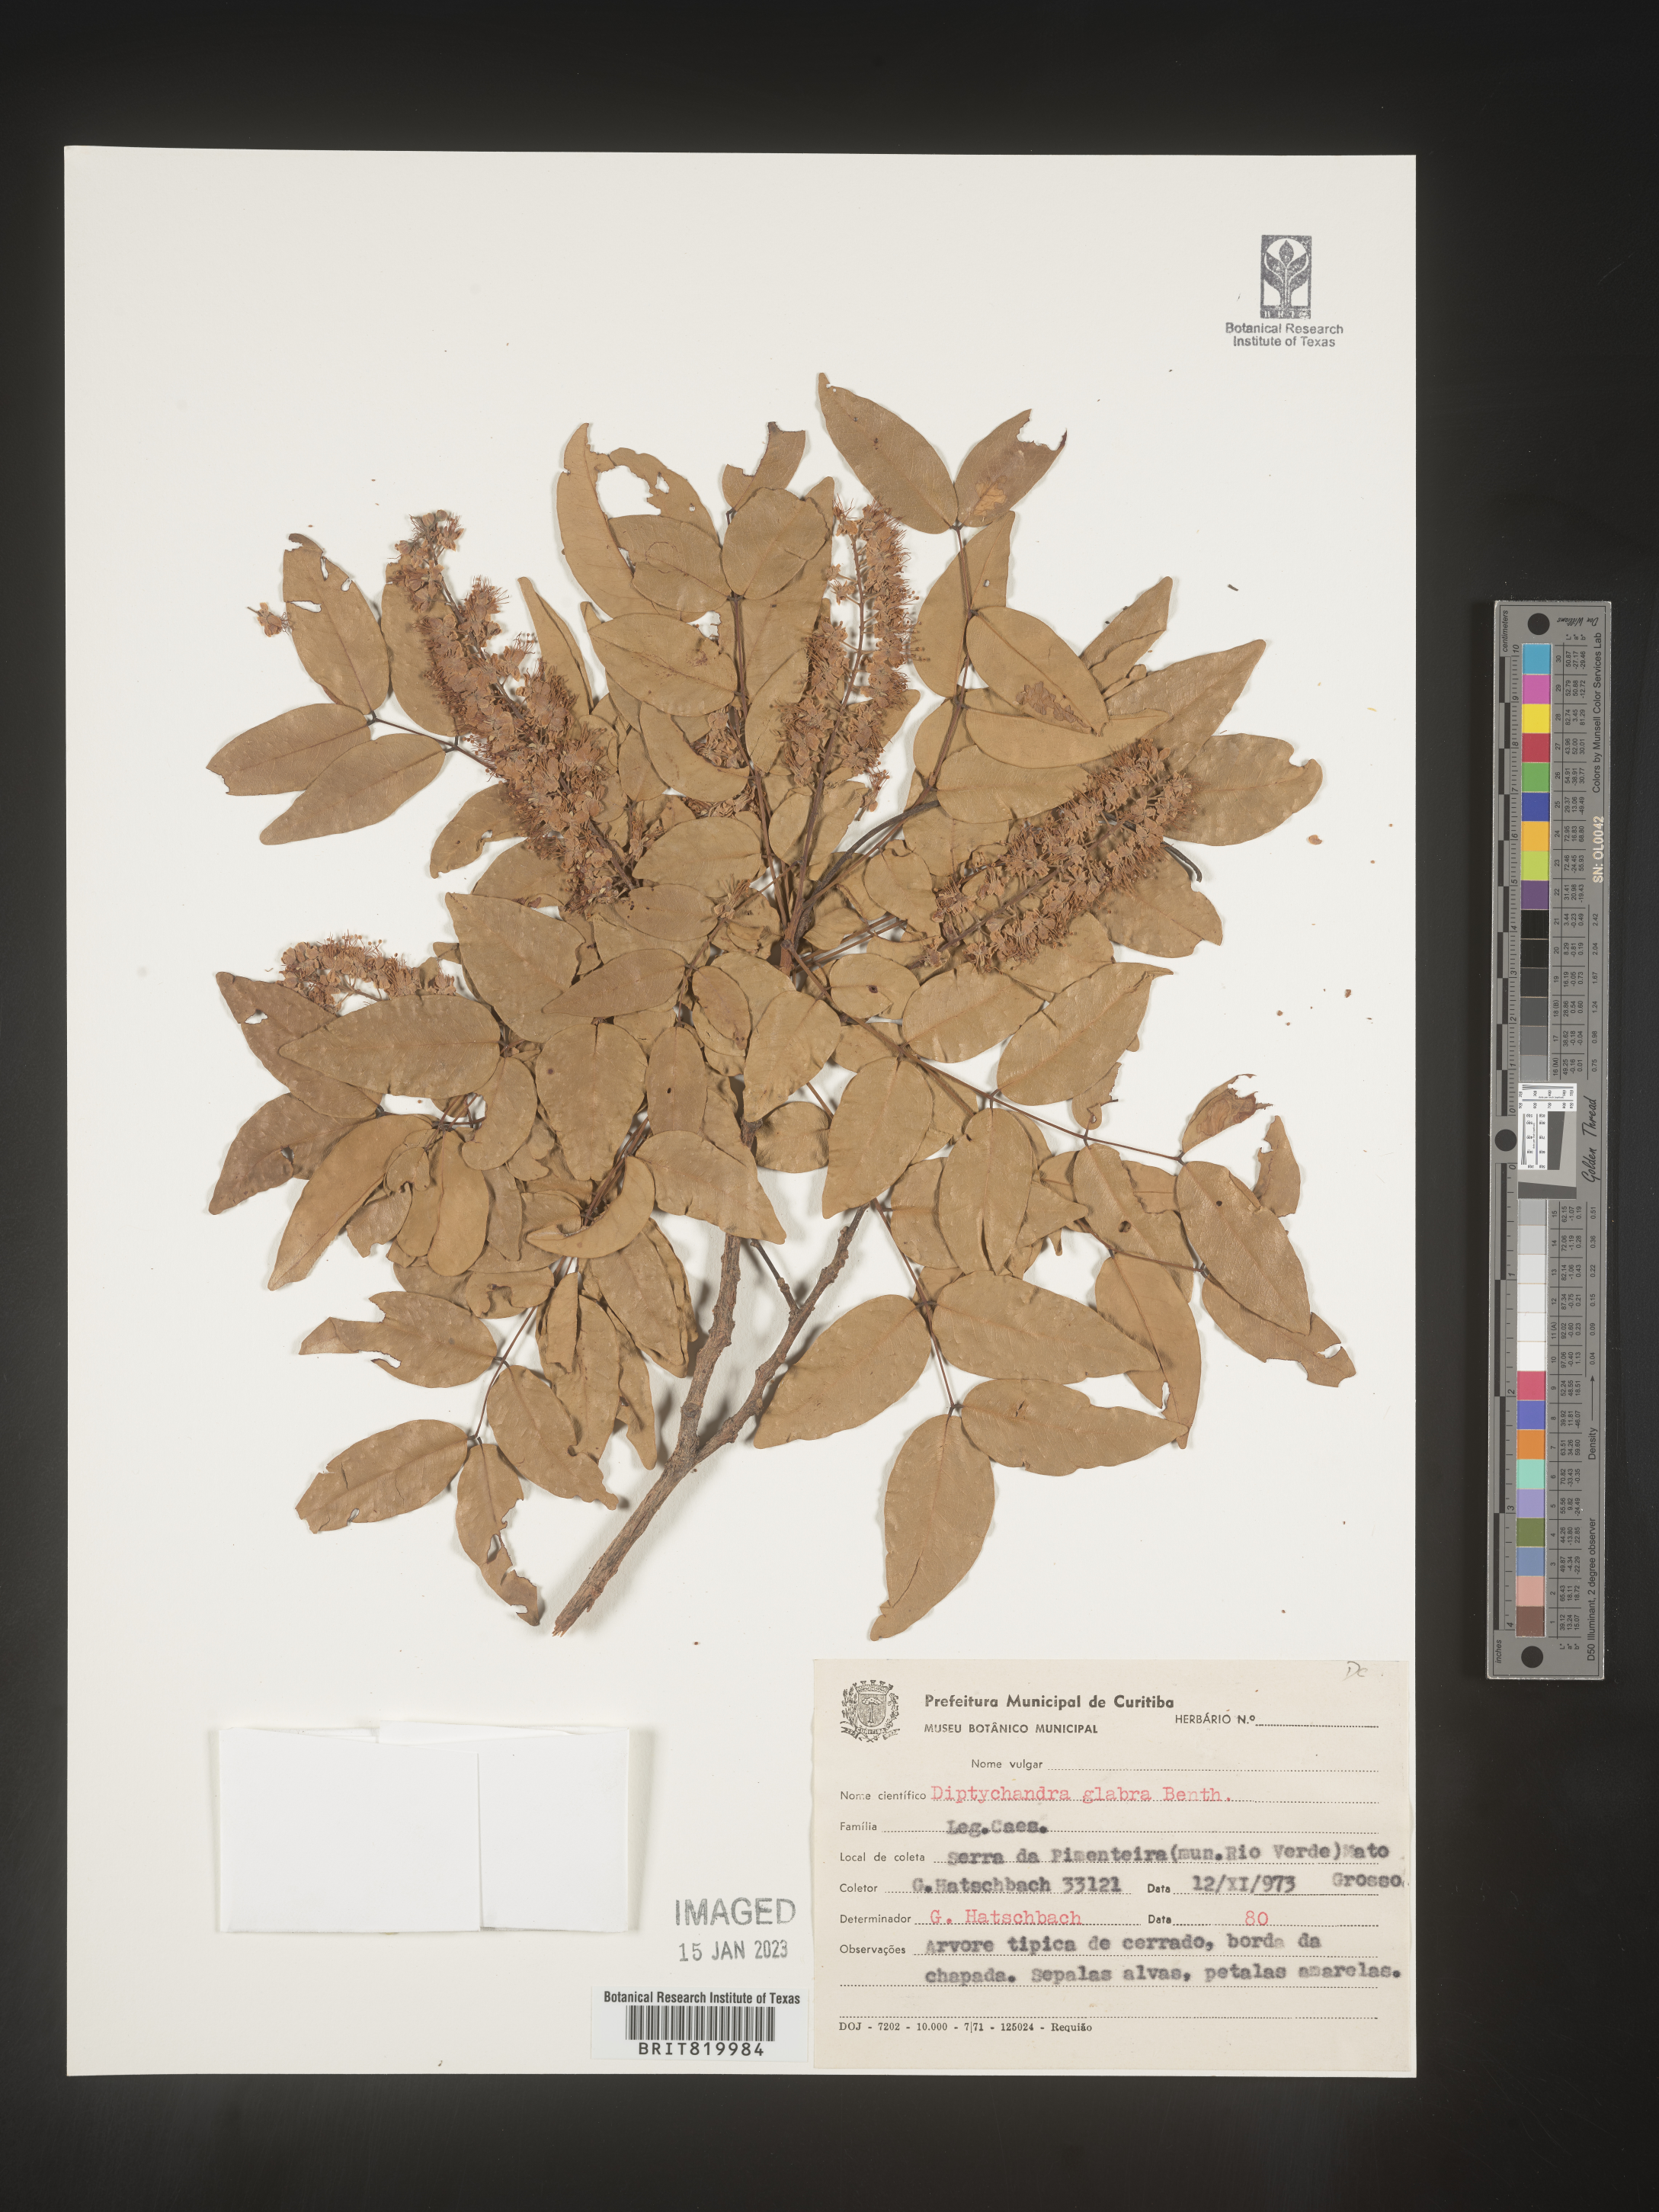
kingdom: Plantae
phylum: Tracheophyta
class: Magnoliopsida
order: Fabales
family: Fabaceae
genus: Diptychandra
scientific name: Diptychandra
